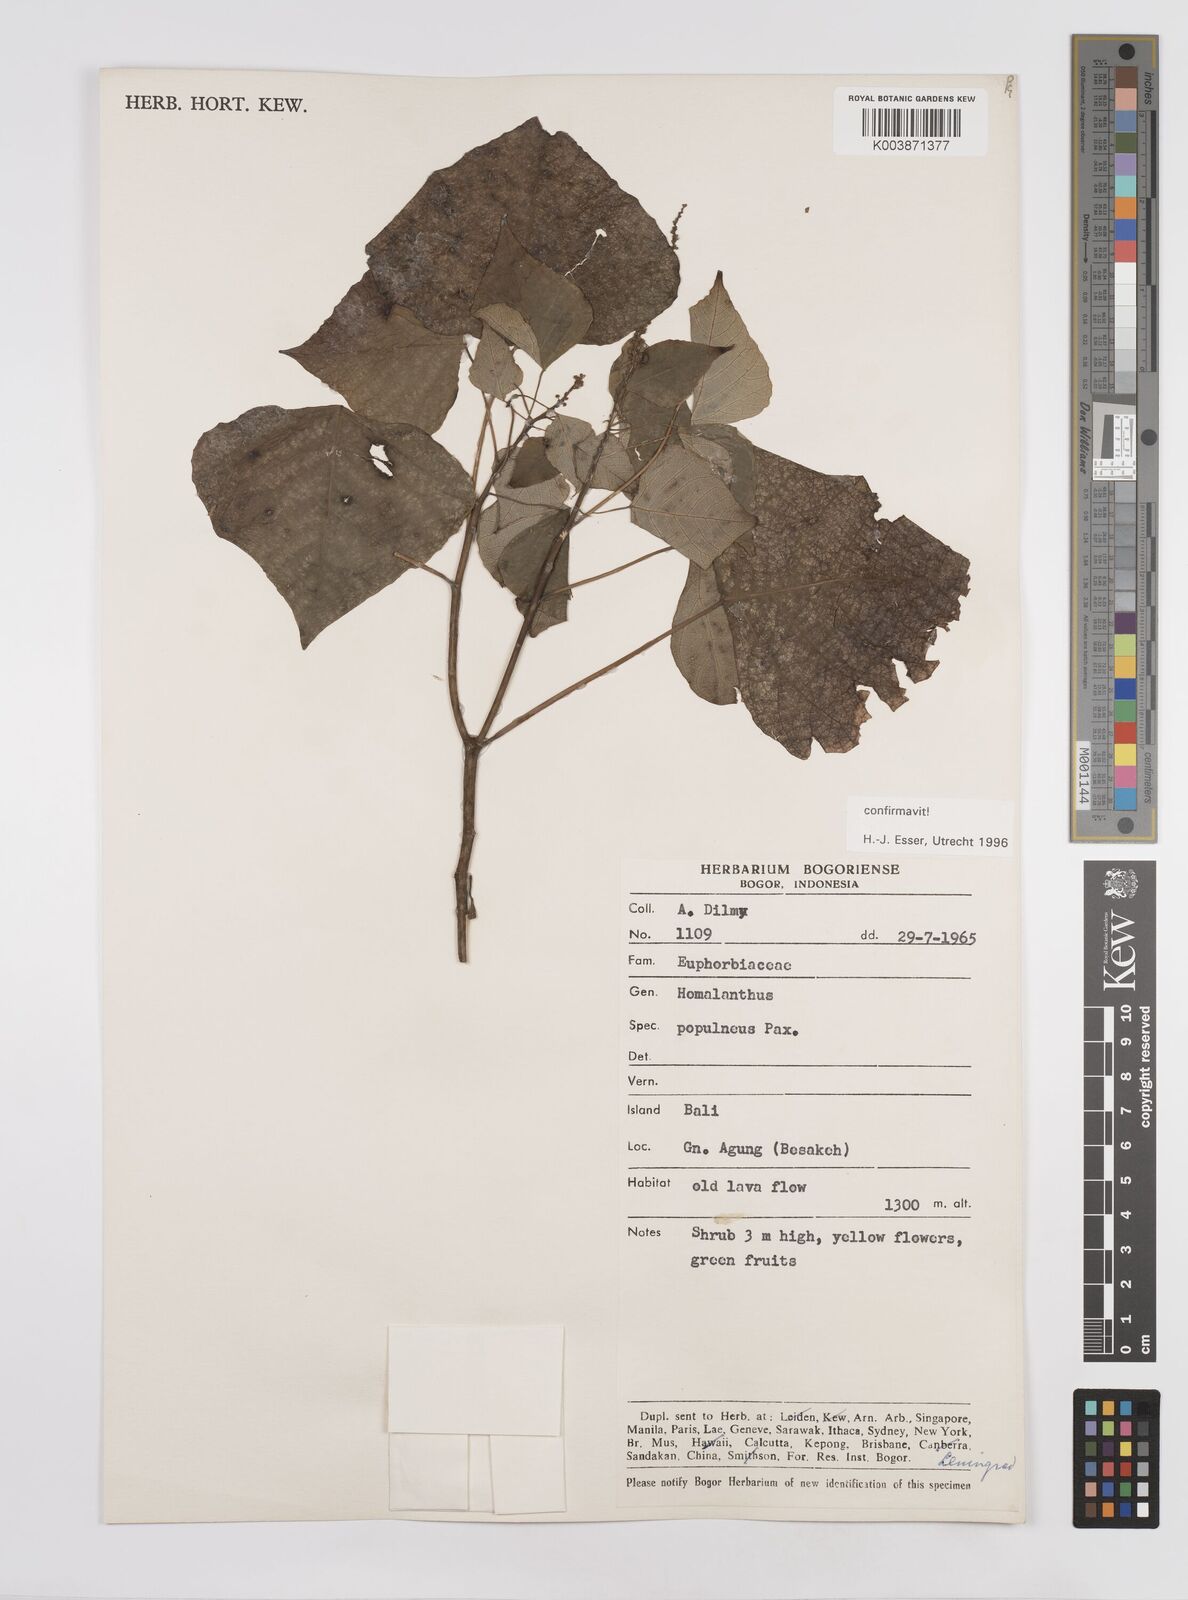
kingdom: Plantae
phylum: Tracheophyta
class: Magnoliopsida
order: Malpighiales
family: Euphorbiaceae
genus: Homalanthus
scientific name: Homalanthus populneus
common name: Spurge
